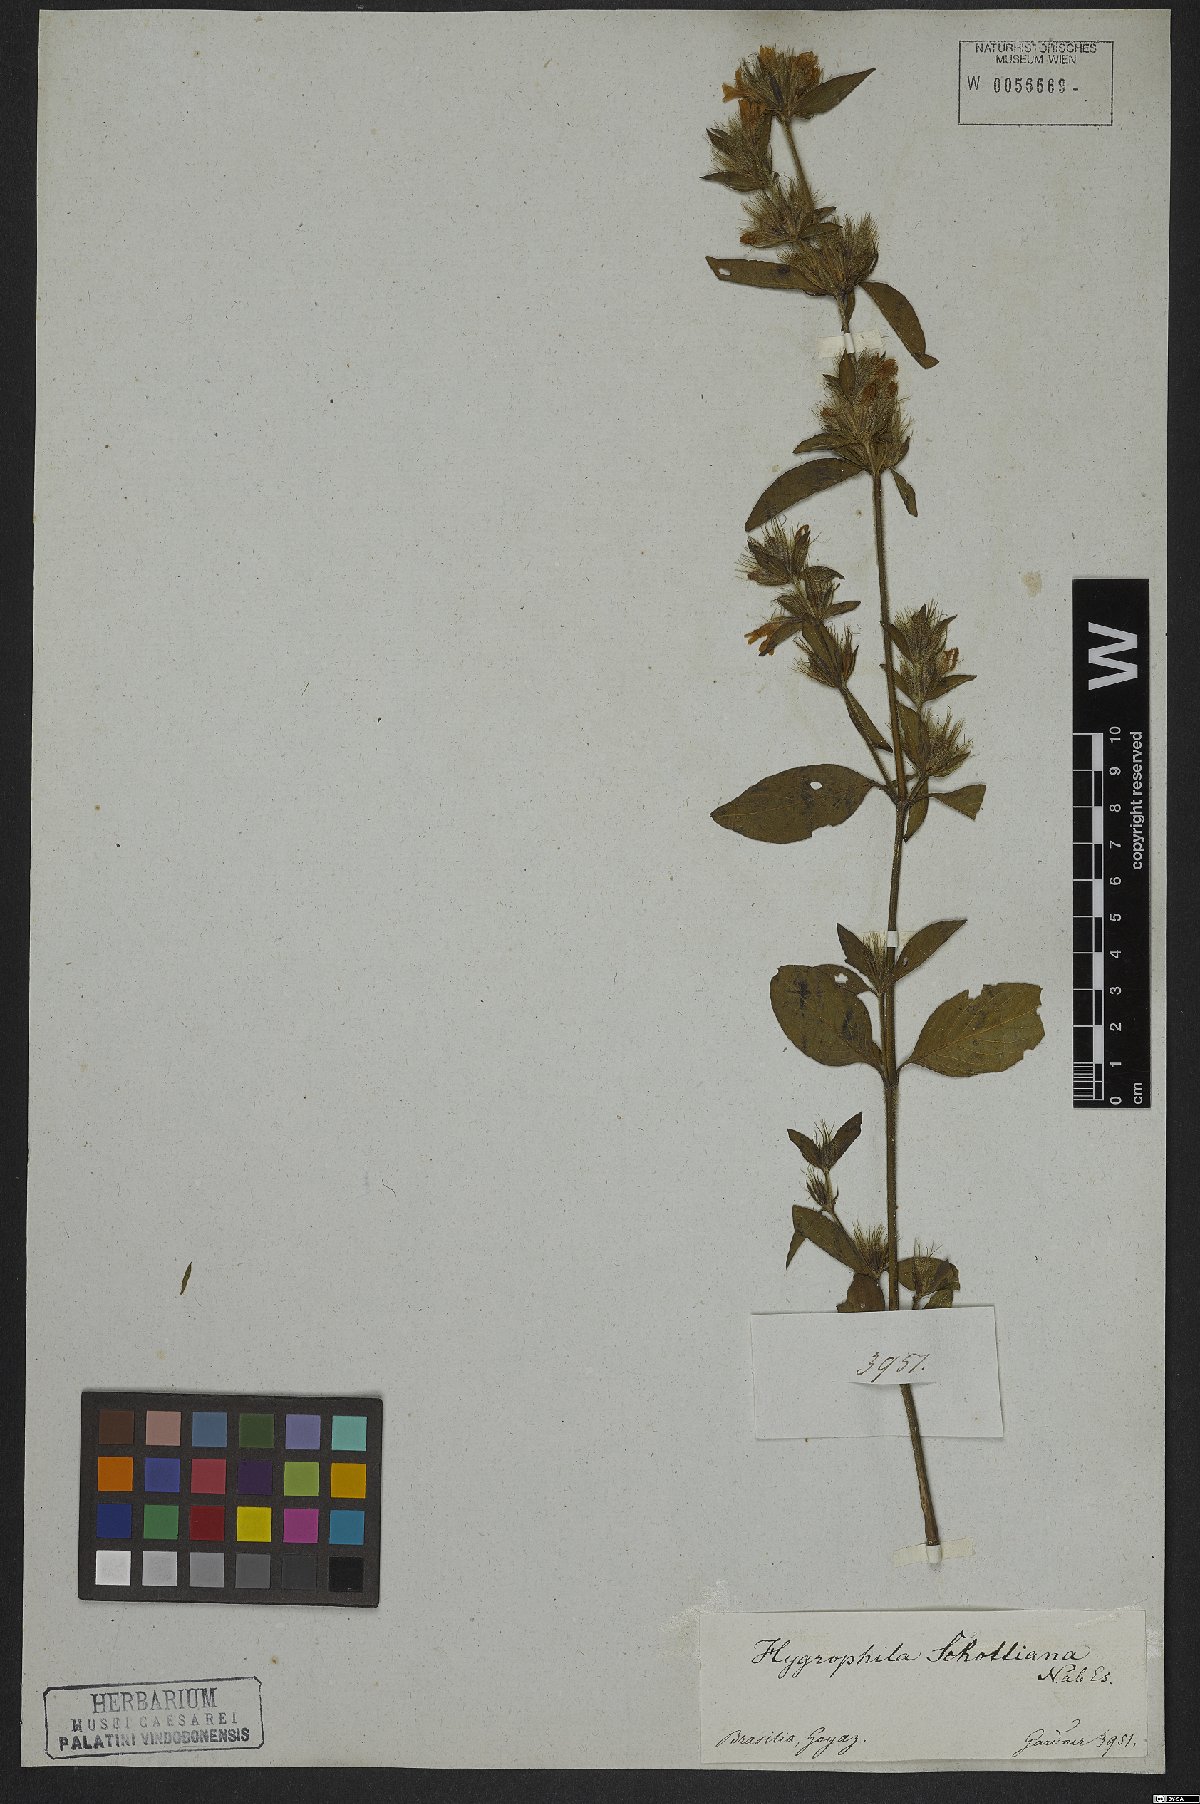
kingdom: Plantae
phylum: Tracheophyta
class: Magnoliopsida
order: Lamiales
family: Acanthaceae
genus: Dyschoriste
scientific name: Dyschoriste schottiana
